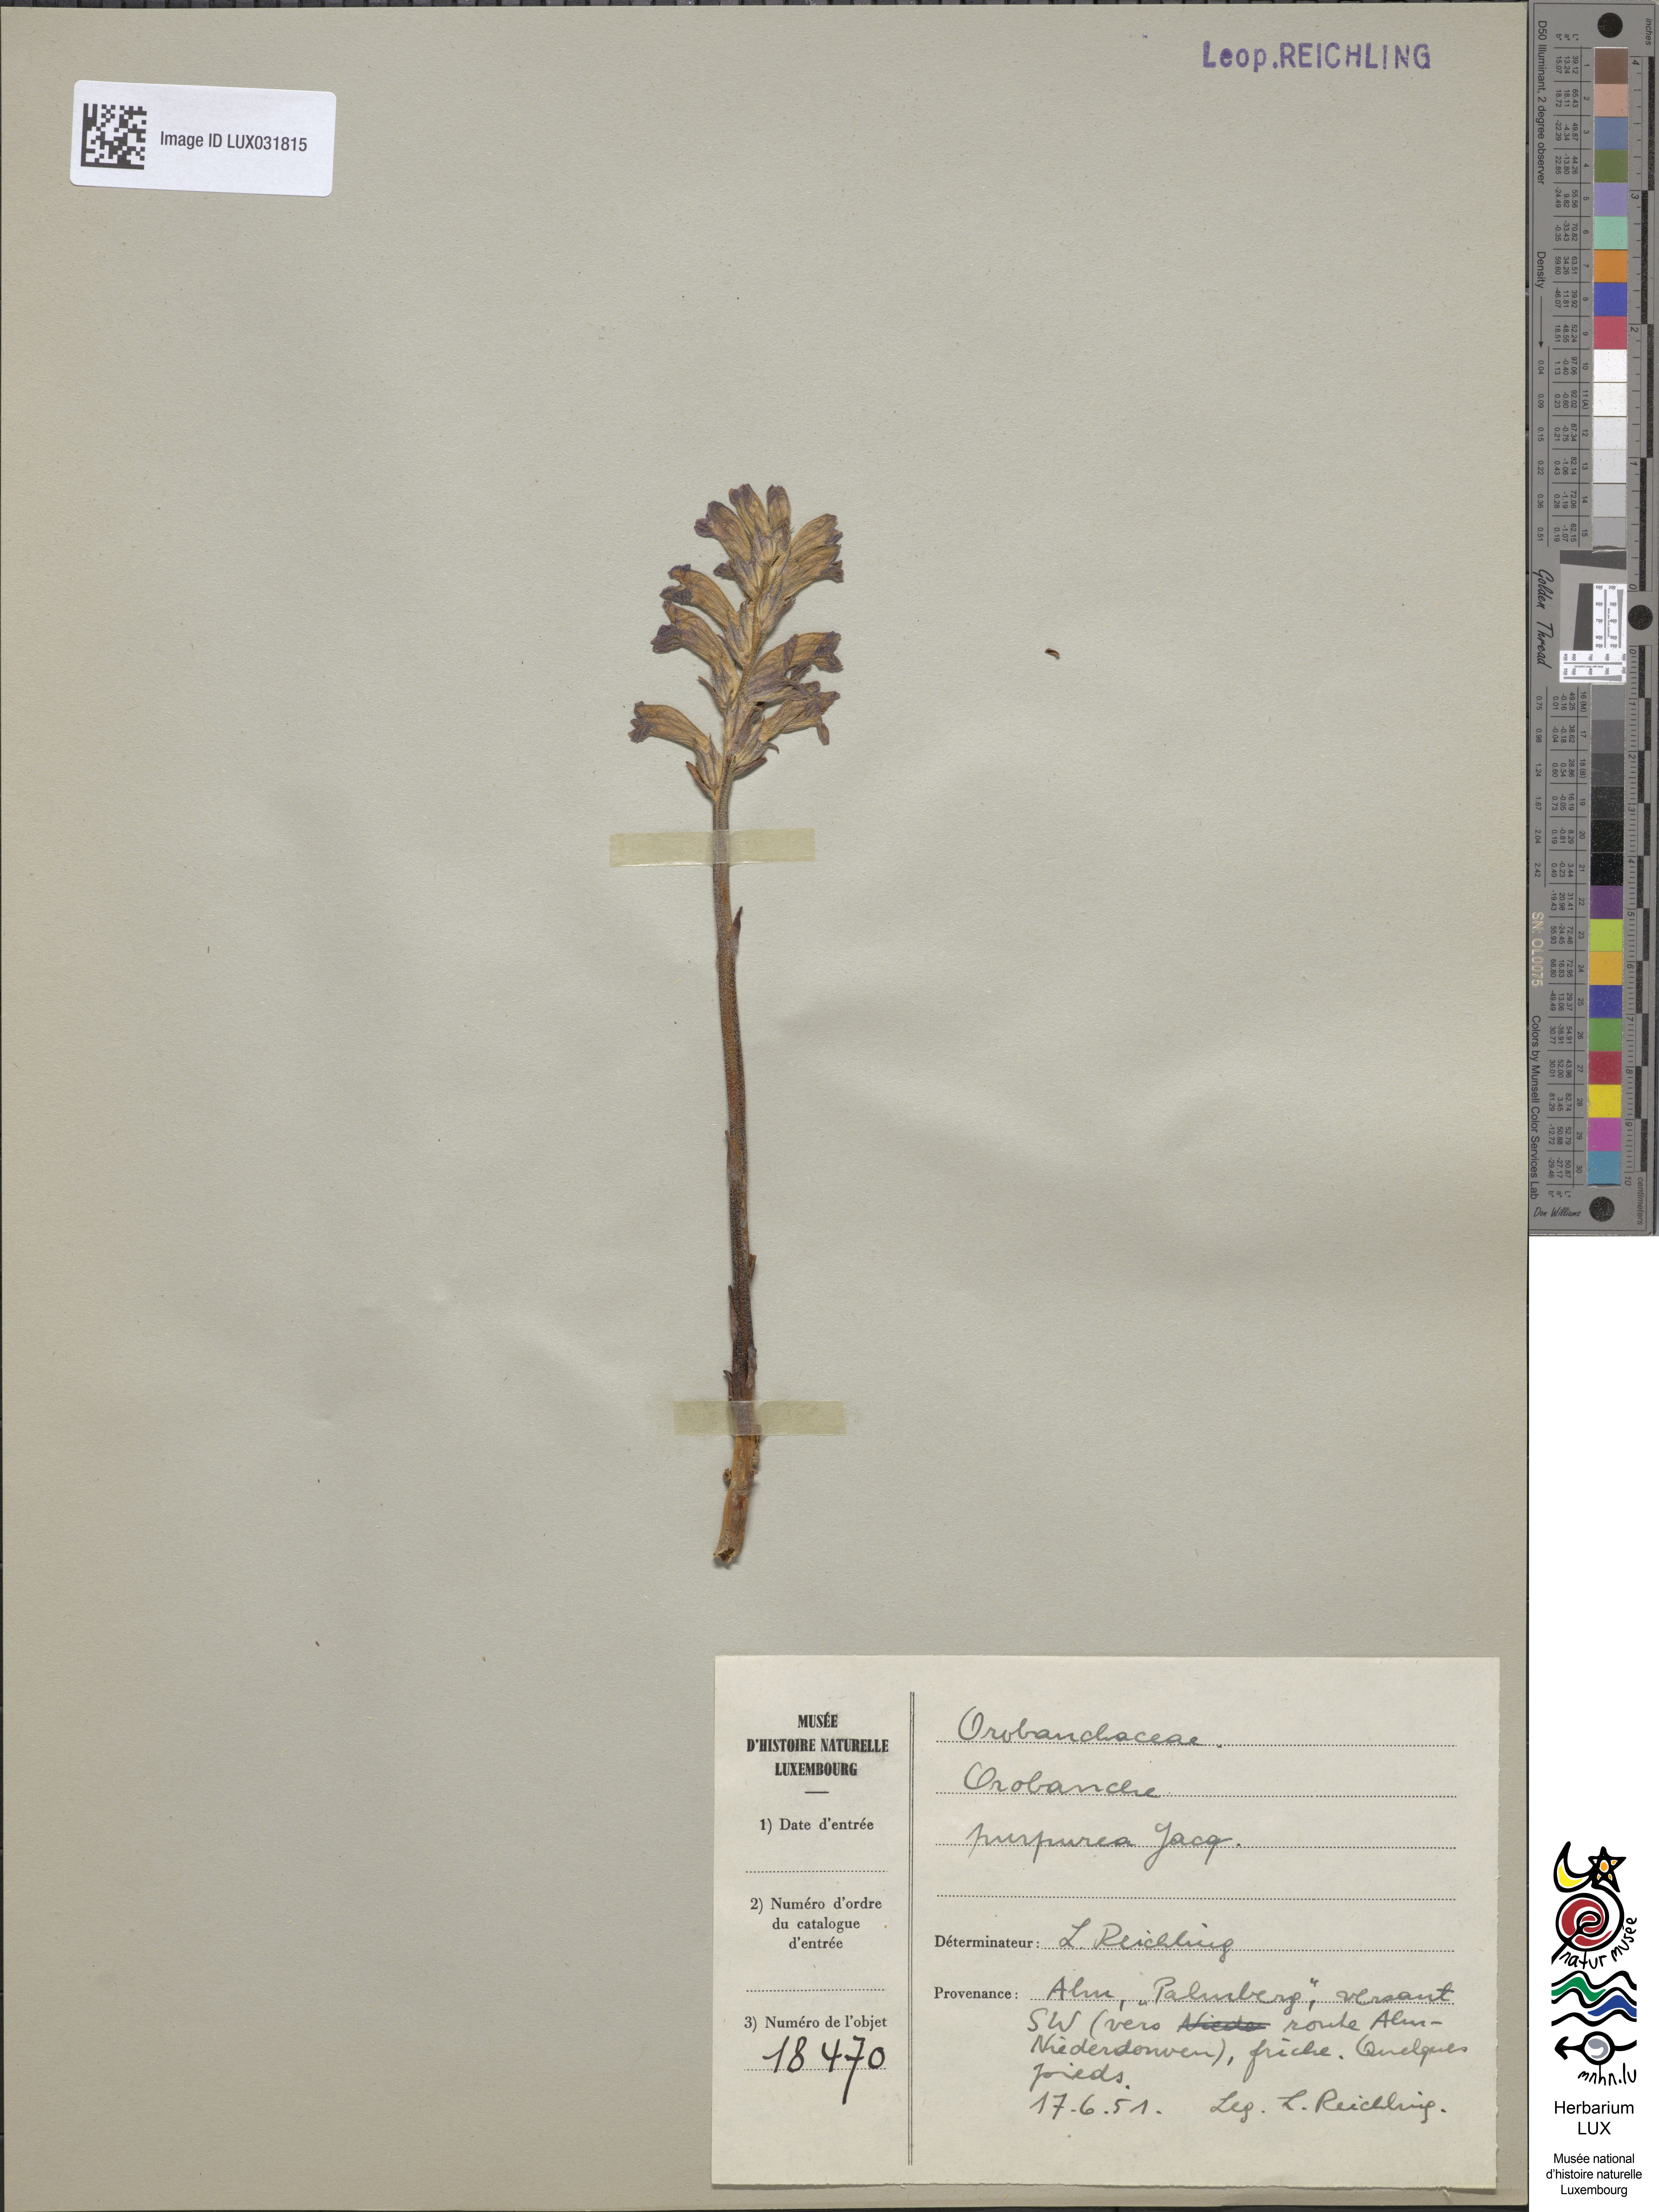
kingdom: Plantae
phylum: Tracheophyta
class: Magnoliopsida
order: Lamiales
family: Orobanchaceae
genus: Phelipanche
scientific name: Phelipanche purpurea
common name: Purple broomrape
